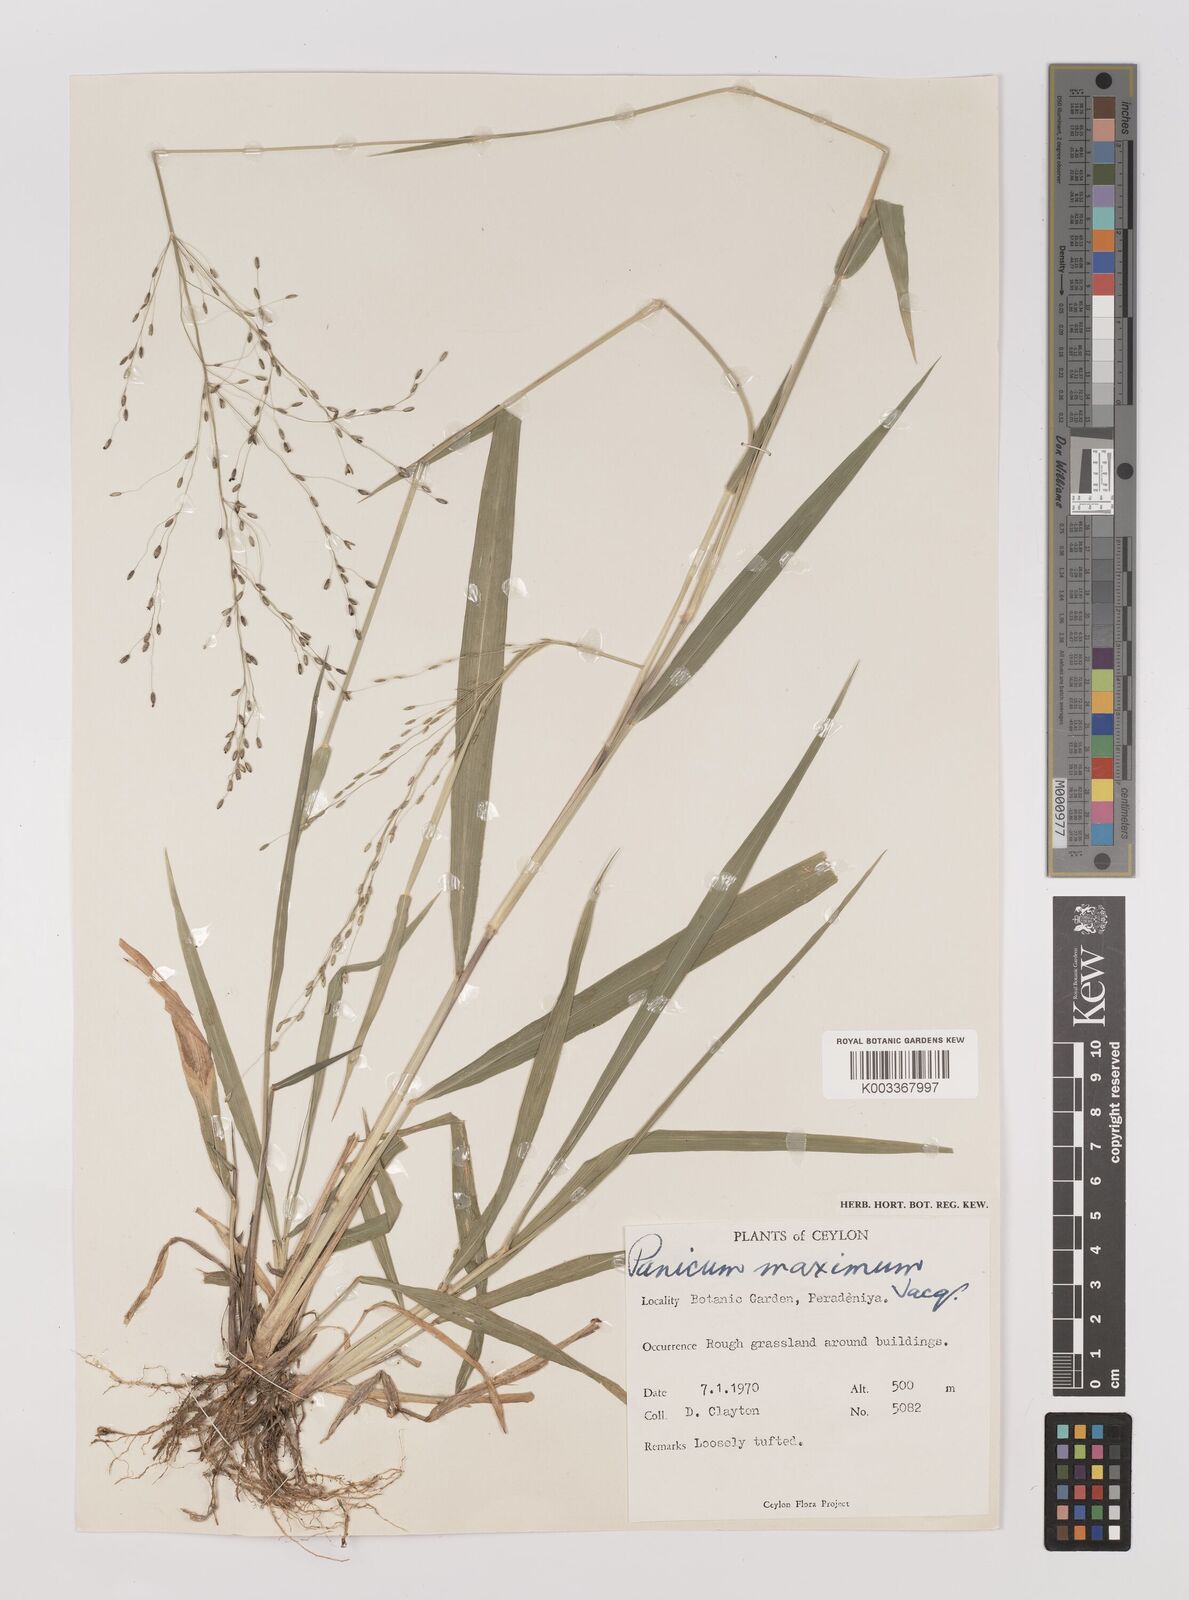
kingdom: Plantae
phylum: Tracheophyta
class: Liliopsida
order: Poales
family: Poaceae
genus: Megathyrsus
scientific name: Megathyrsus maximus
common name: Guineagrass
